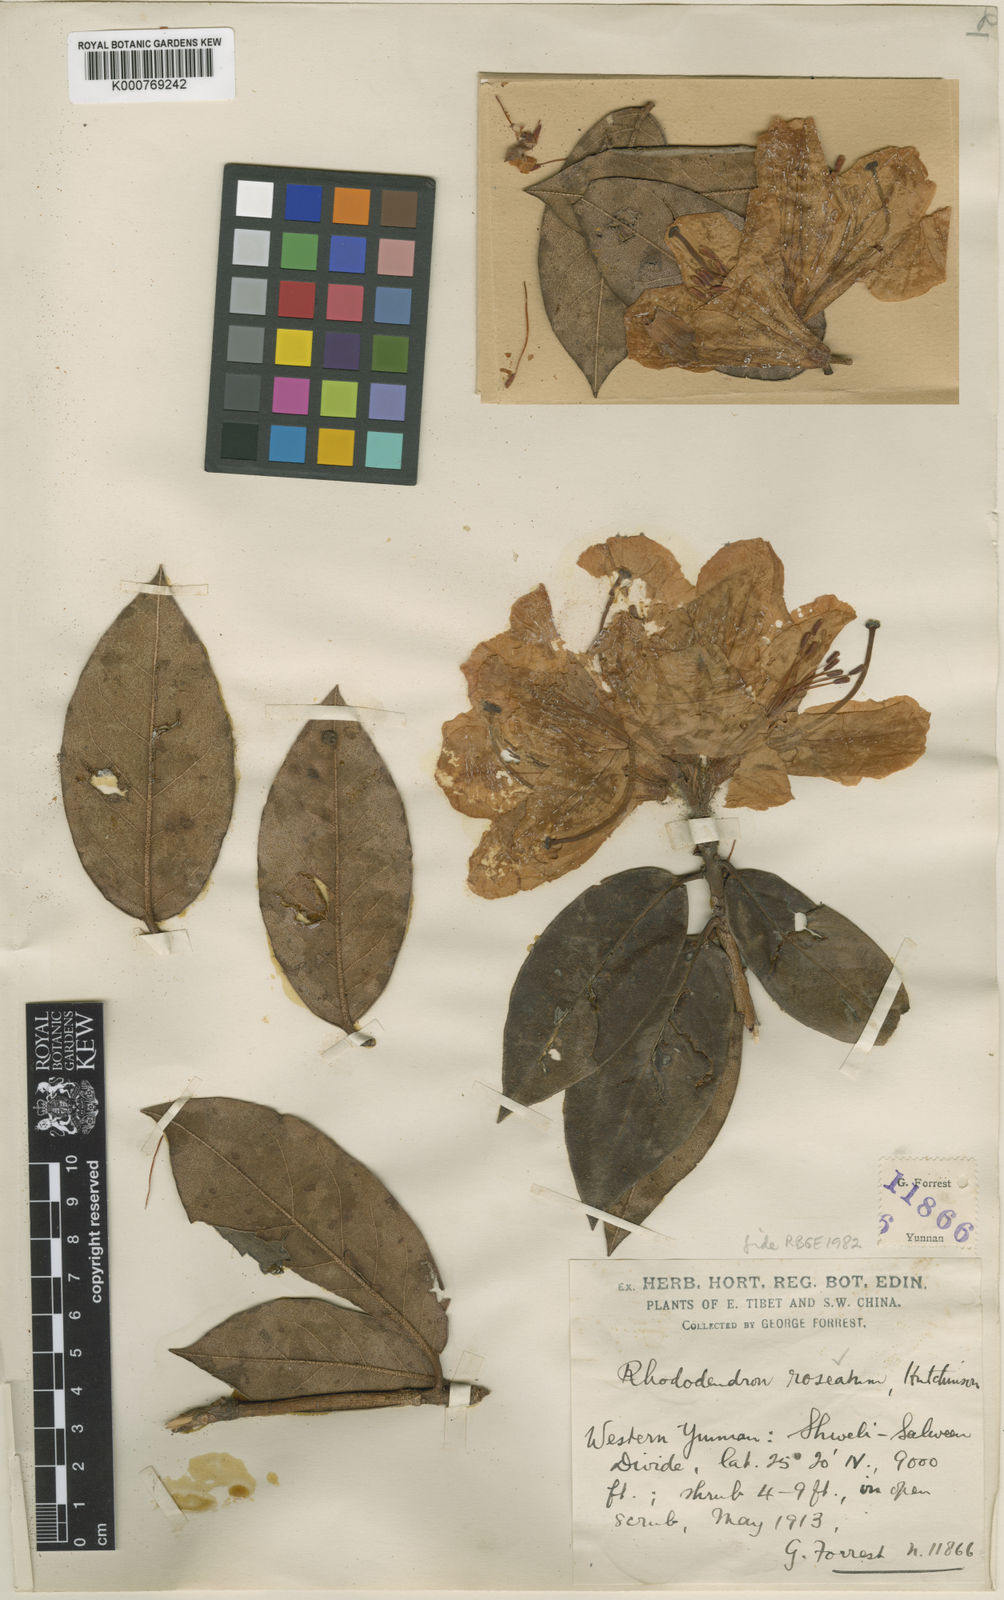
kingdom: Plantae
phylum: Tracheophyta
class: Magnoliopsida
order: Ericales
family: Ericaceae
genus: Rhododendron
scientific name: Rhododendron roseatum
